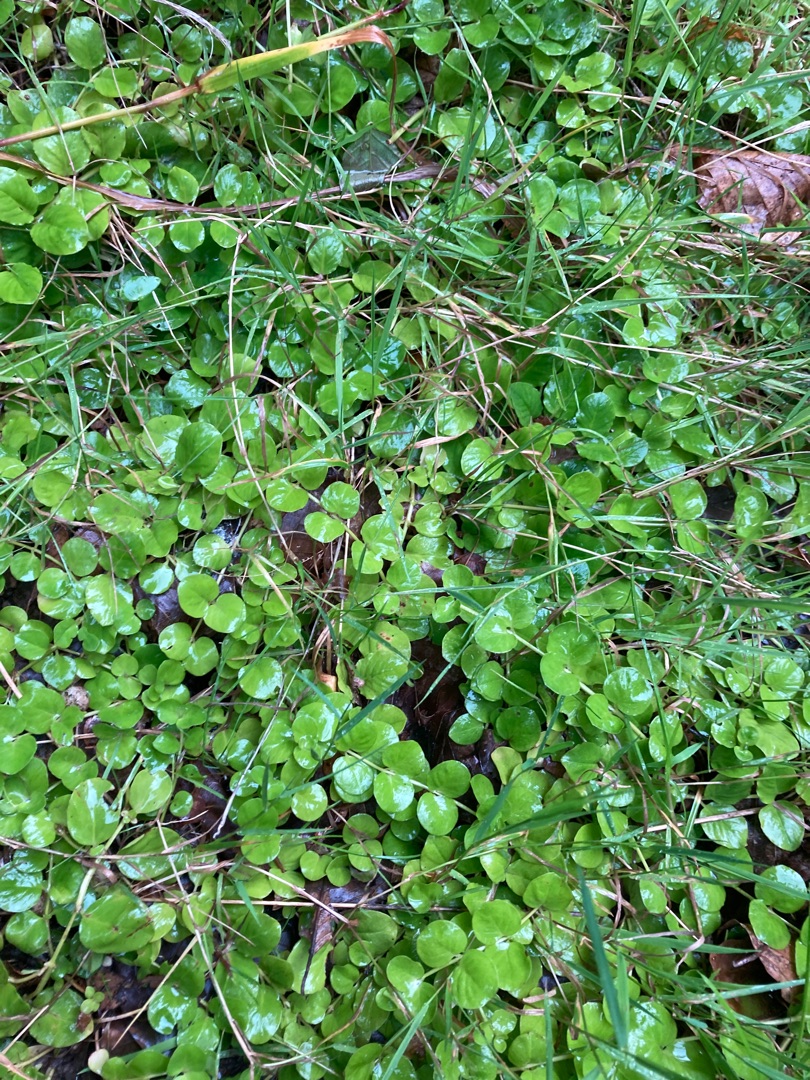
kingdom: Plantae
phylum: Tracheophyta
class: Magnoliopsida
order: Ericales
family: Primulaceae
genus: Lysimachia
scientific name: Lysimachia nummularia
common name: Pengebladet fredløs
